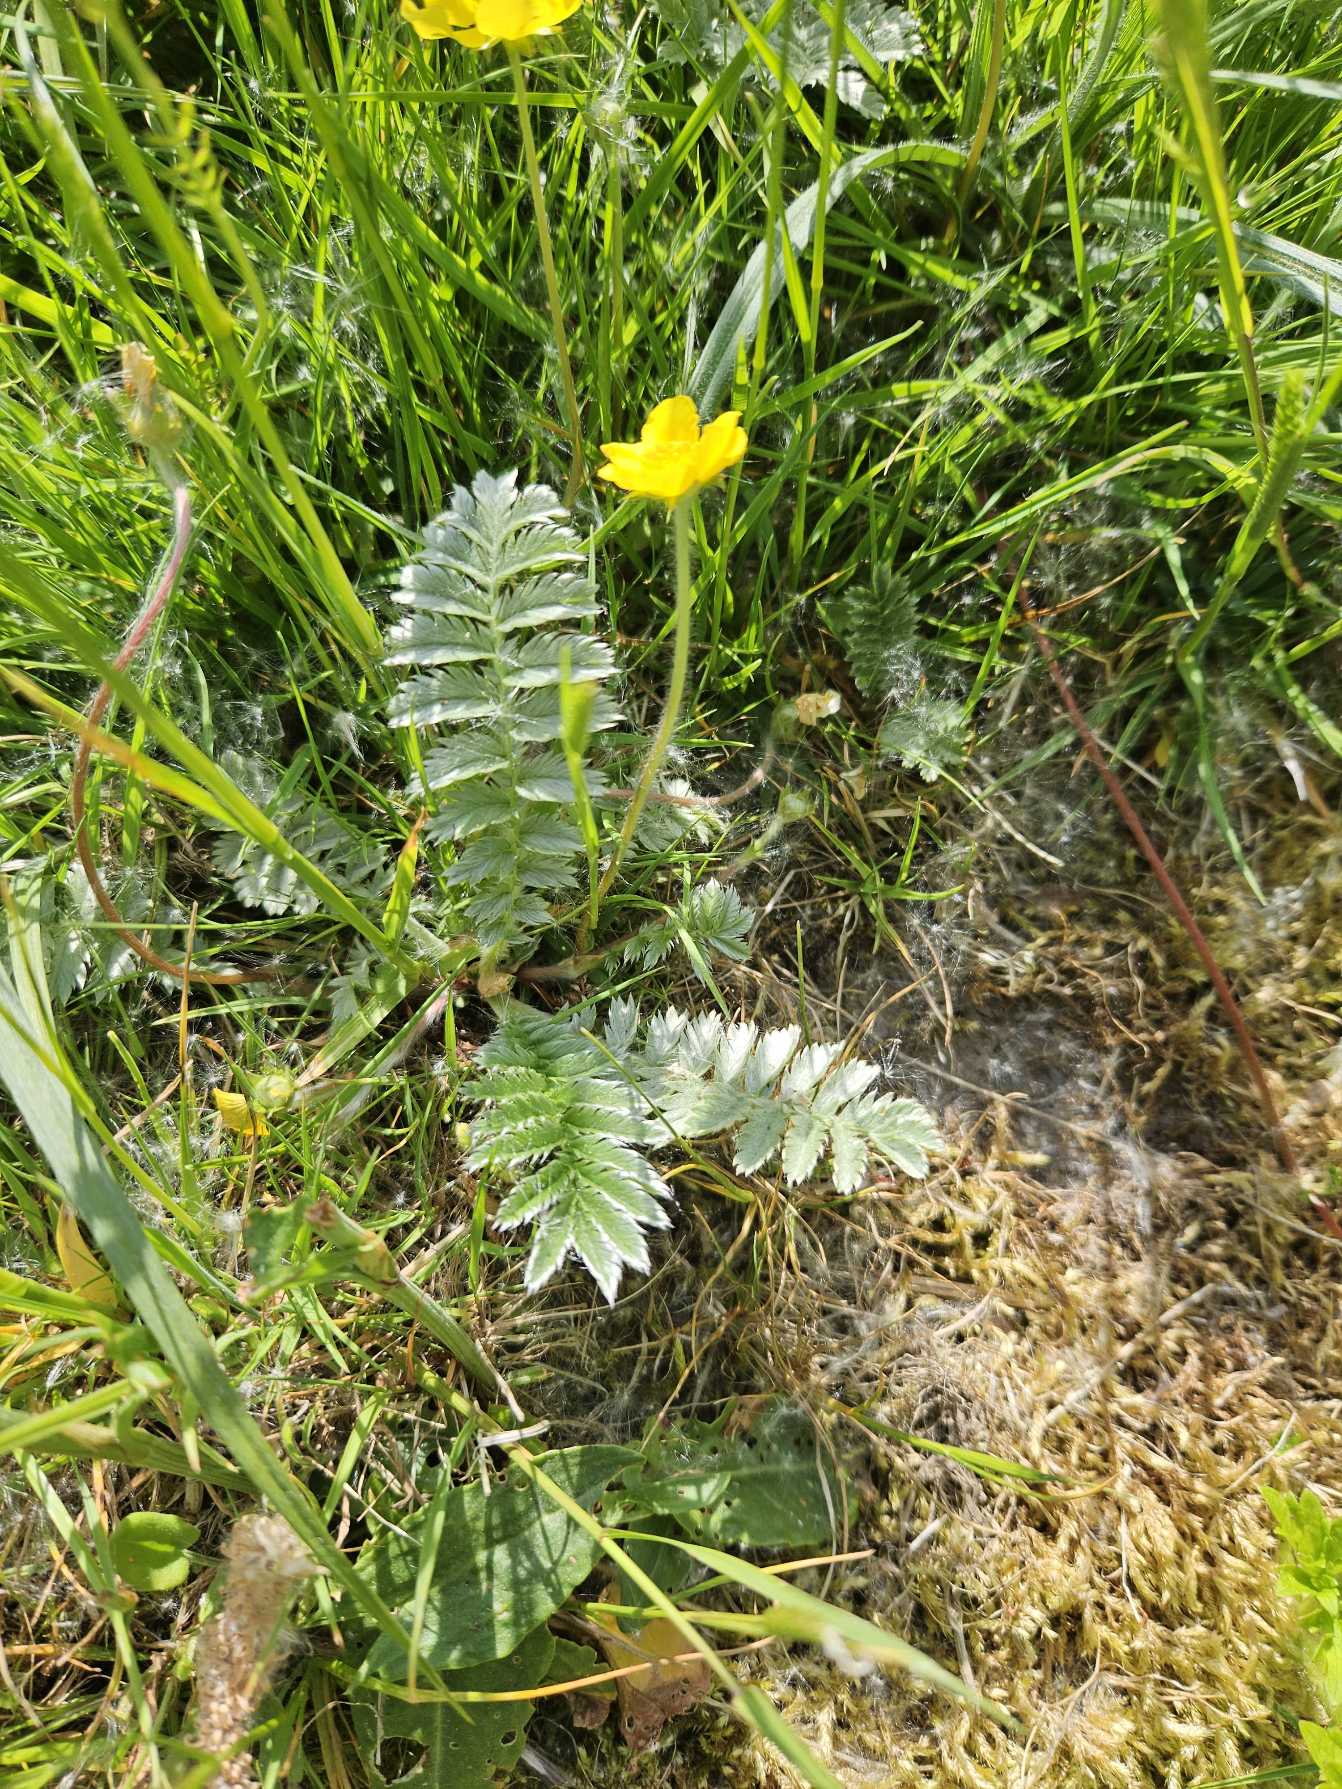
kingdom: Plantae
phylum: Tracheophyta
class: Magnoliopsida
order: Rosales
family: Rosaceae
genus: Argentina
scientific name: Argentina anserina
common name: Gåsepotentil
